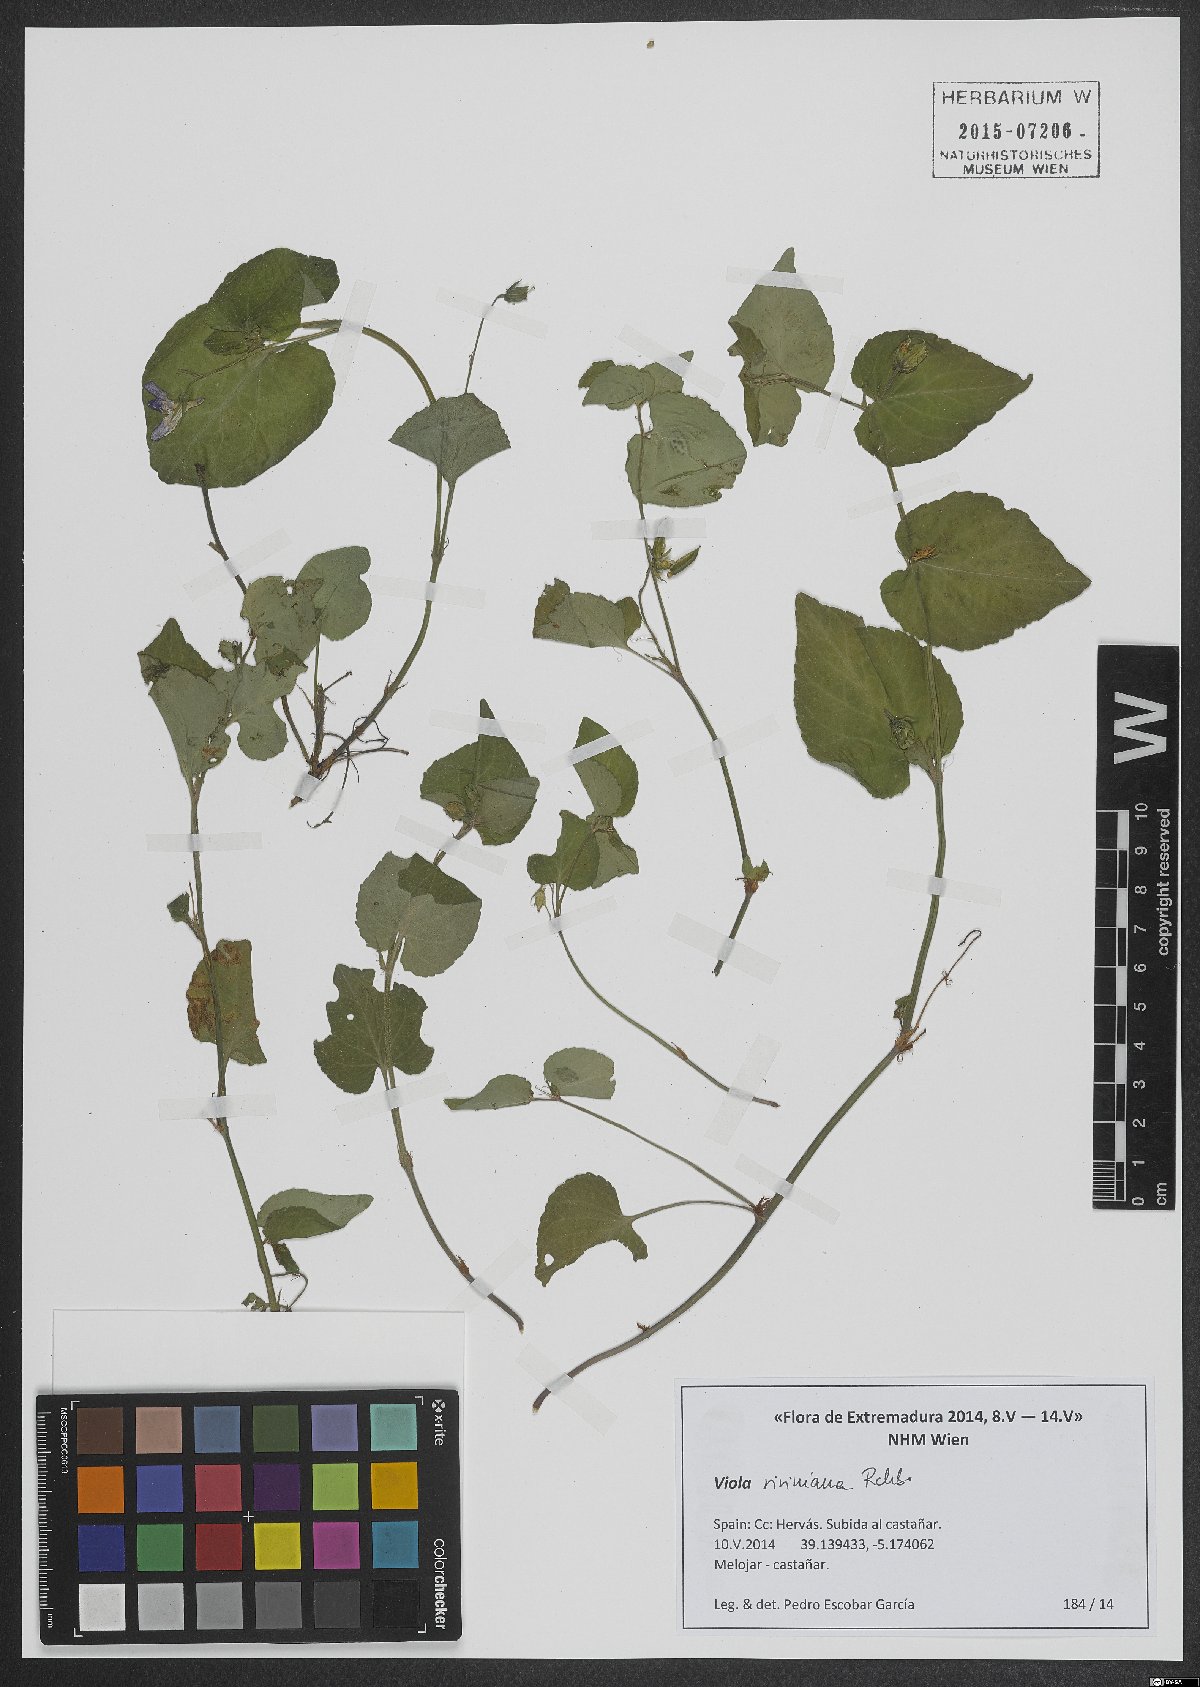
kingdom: Plantae
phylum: Tracheophyta
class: Magnoliopsida
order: Malpighiales
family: Violaceae
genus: Viola
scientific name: Viola riviniana
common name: Common dog-violet
